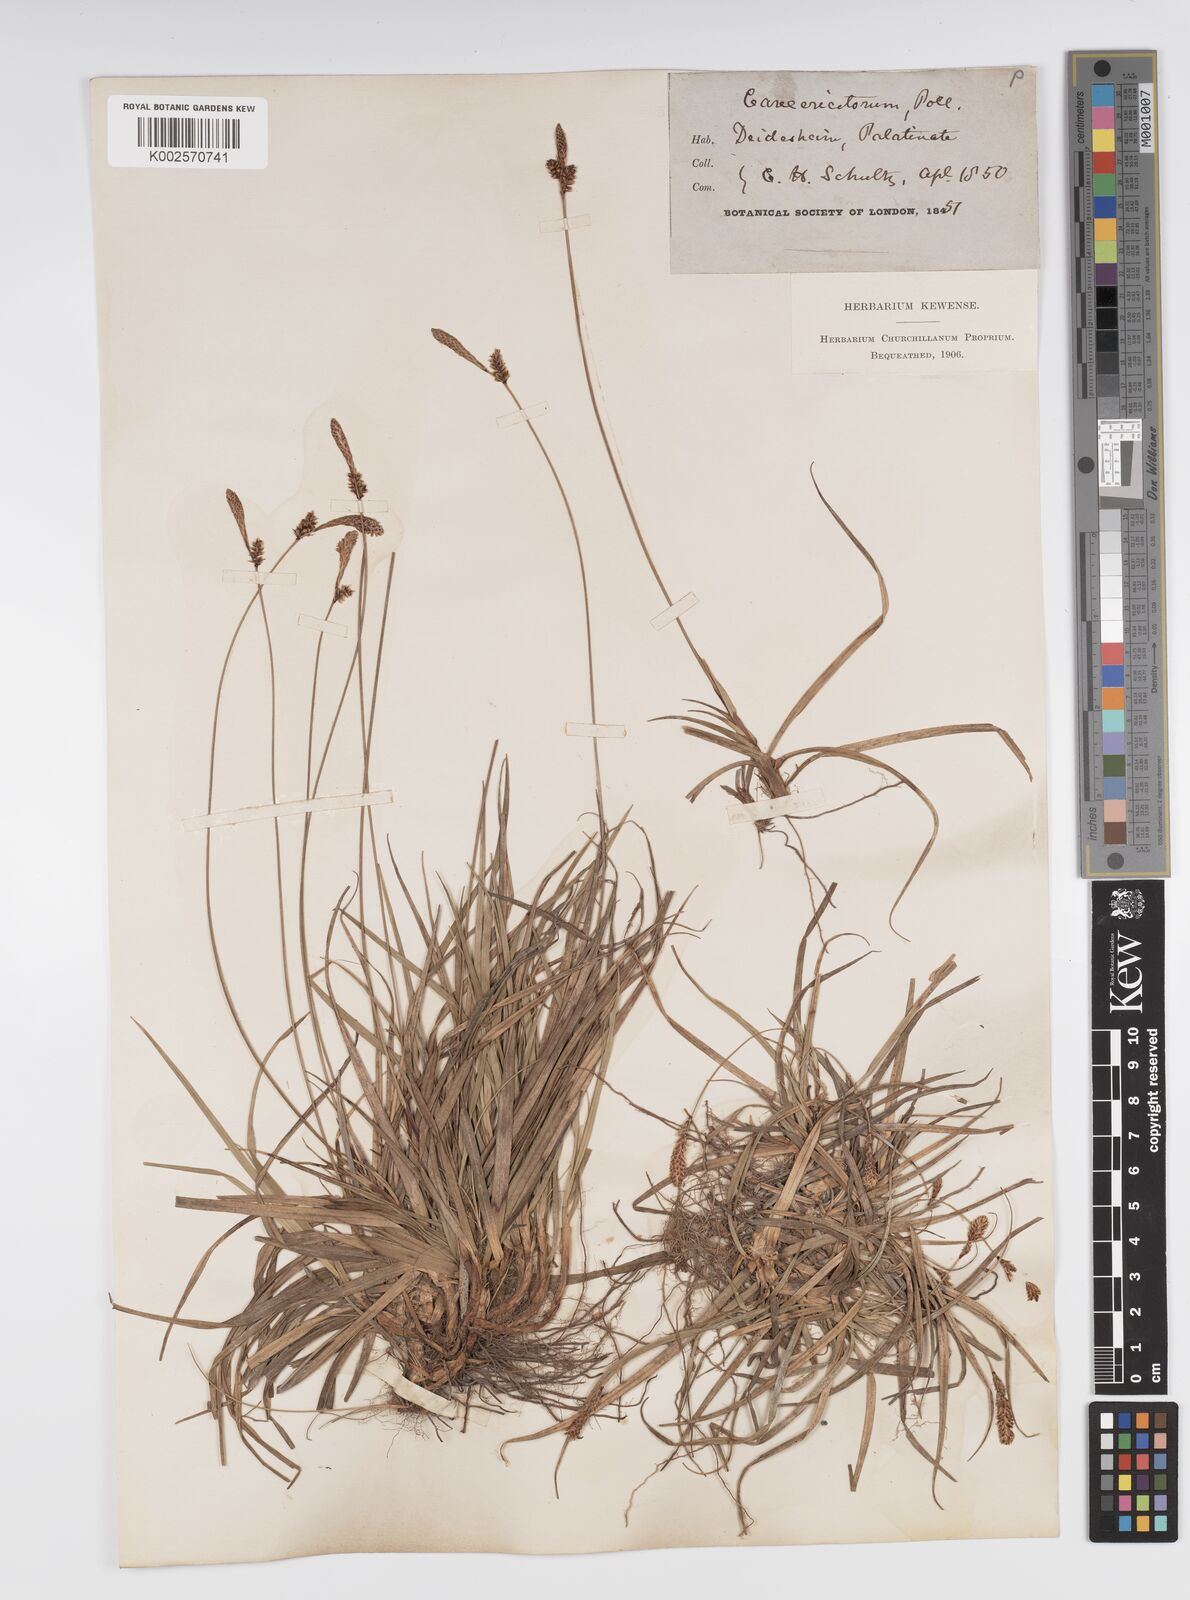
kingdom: Plantae
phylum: Tracheophyta
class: Liliopsida
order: Poales
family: Cyperaceae
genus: Carex
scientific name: Carex ericetorum
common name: Rare spring-sedge
